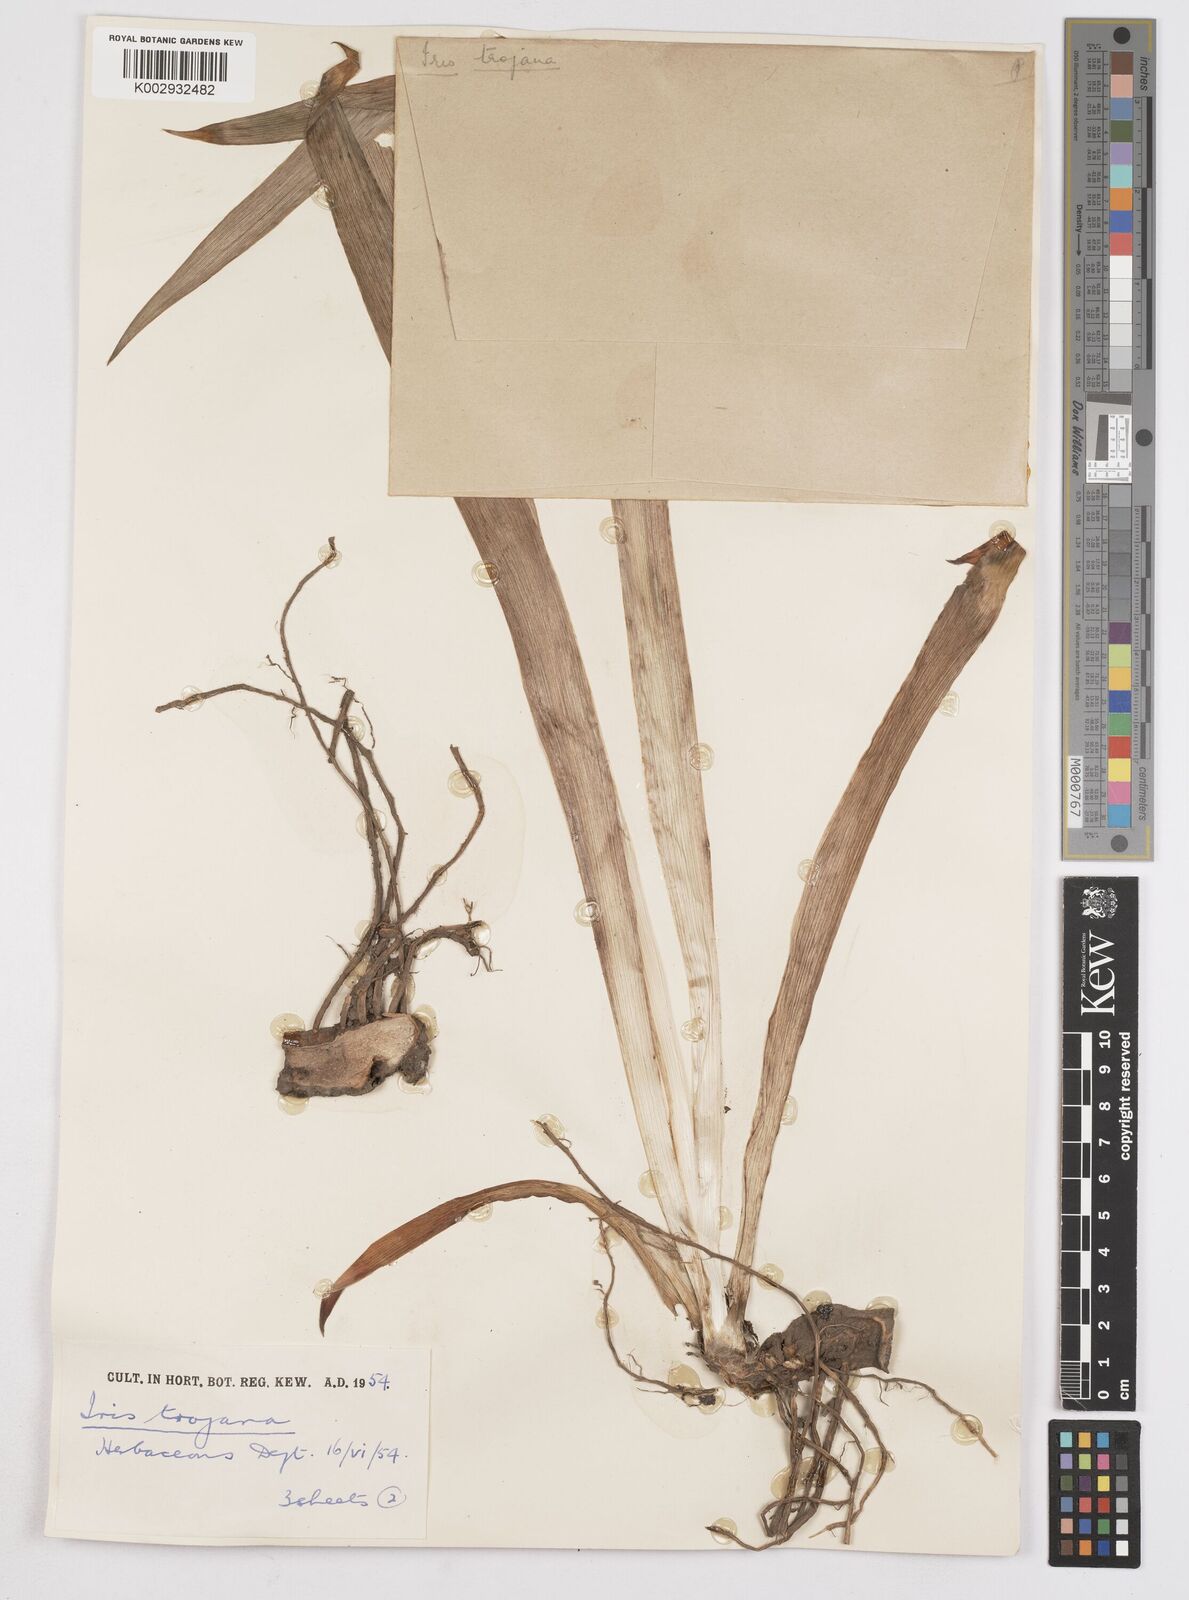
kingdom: Plantae
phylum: Tracheophyta
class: Liliopsida
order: Asparagales
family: Iridaceae
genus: Iris
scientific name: Iris
